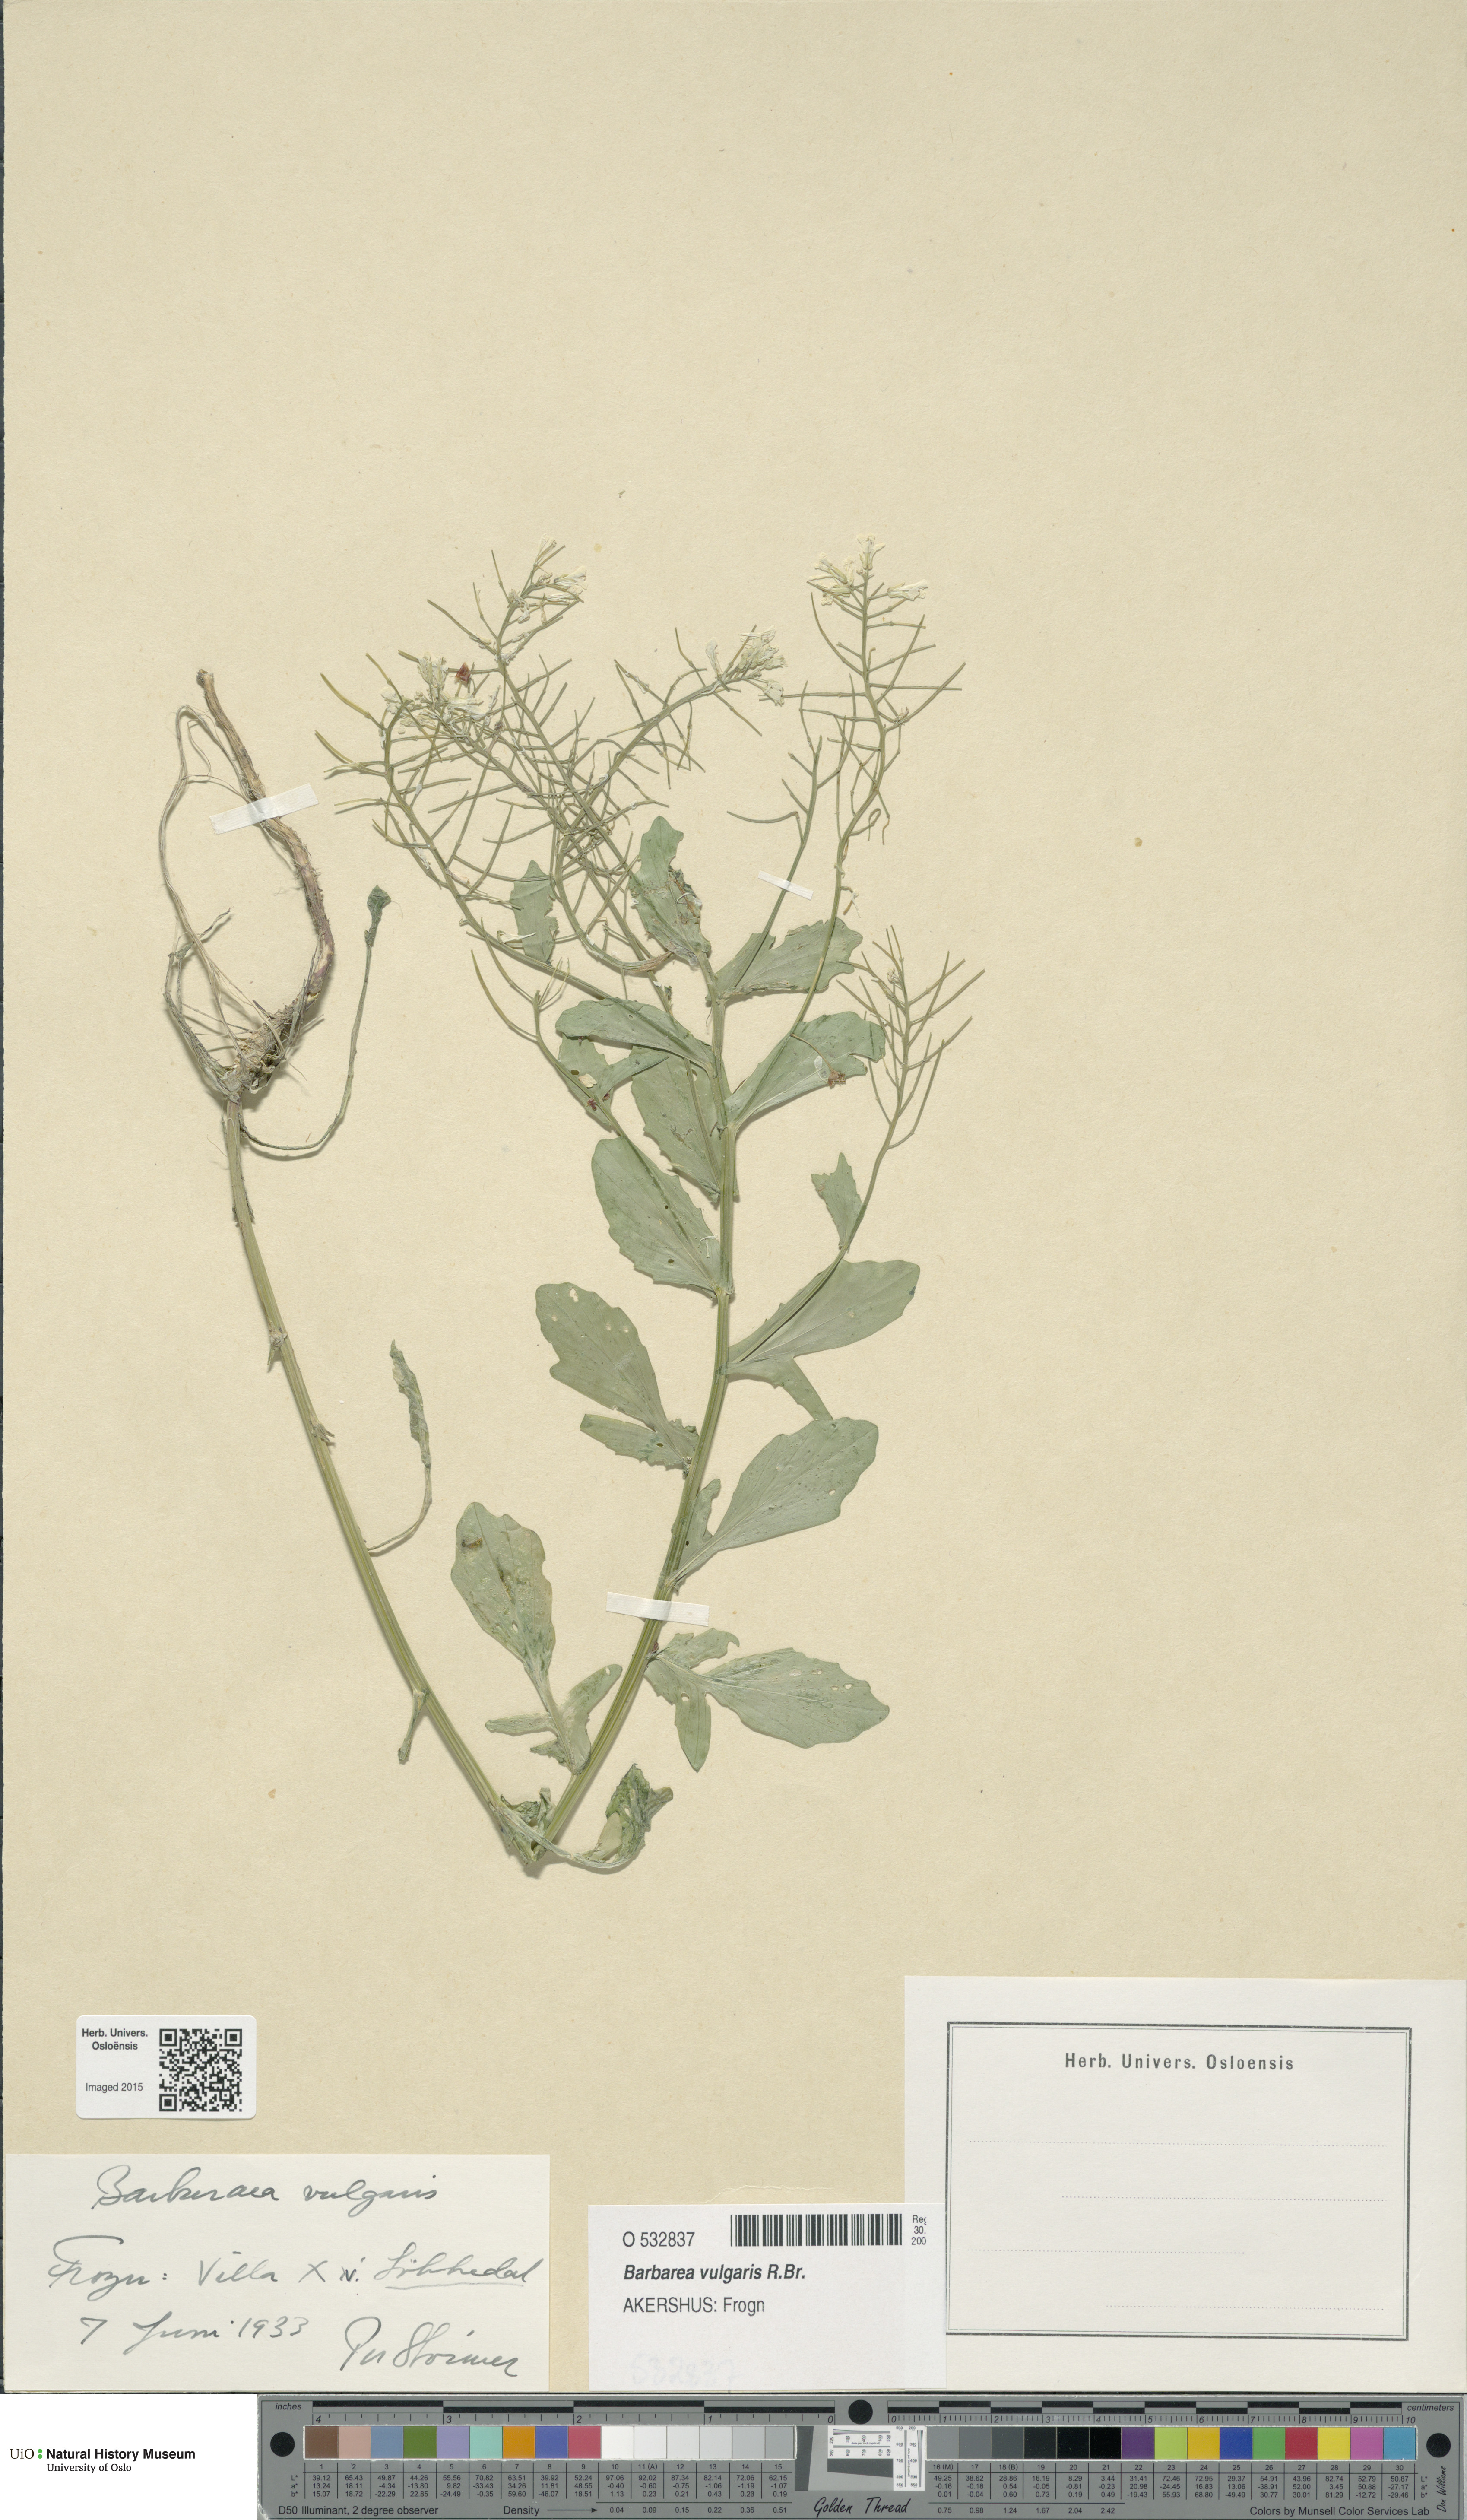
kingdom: Plantae
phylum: Tracheophyta
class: Magnoliopsida
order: Brassicales
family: Brassicaceae
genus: Barbarea
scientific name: Barbarea vulgaris
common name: Cressy-greens
